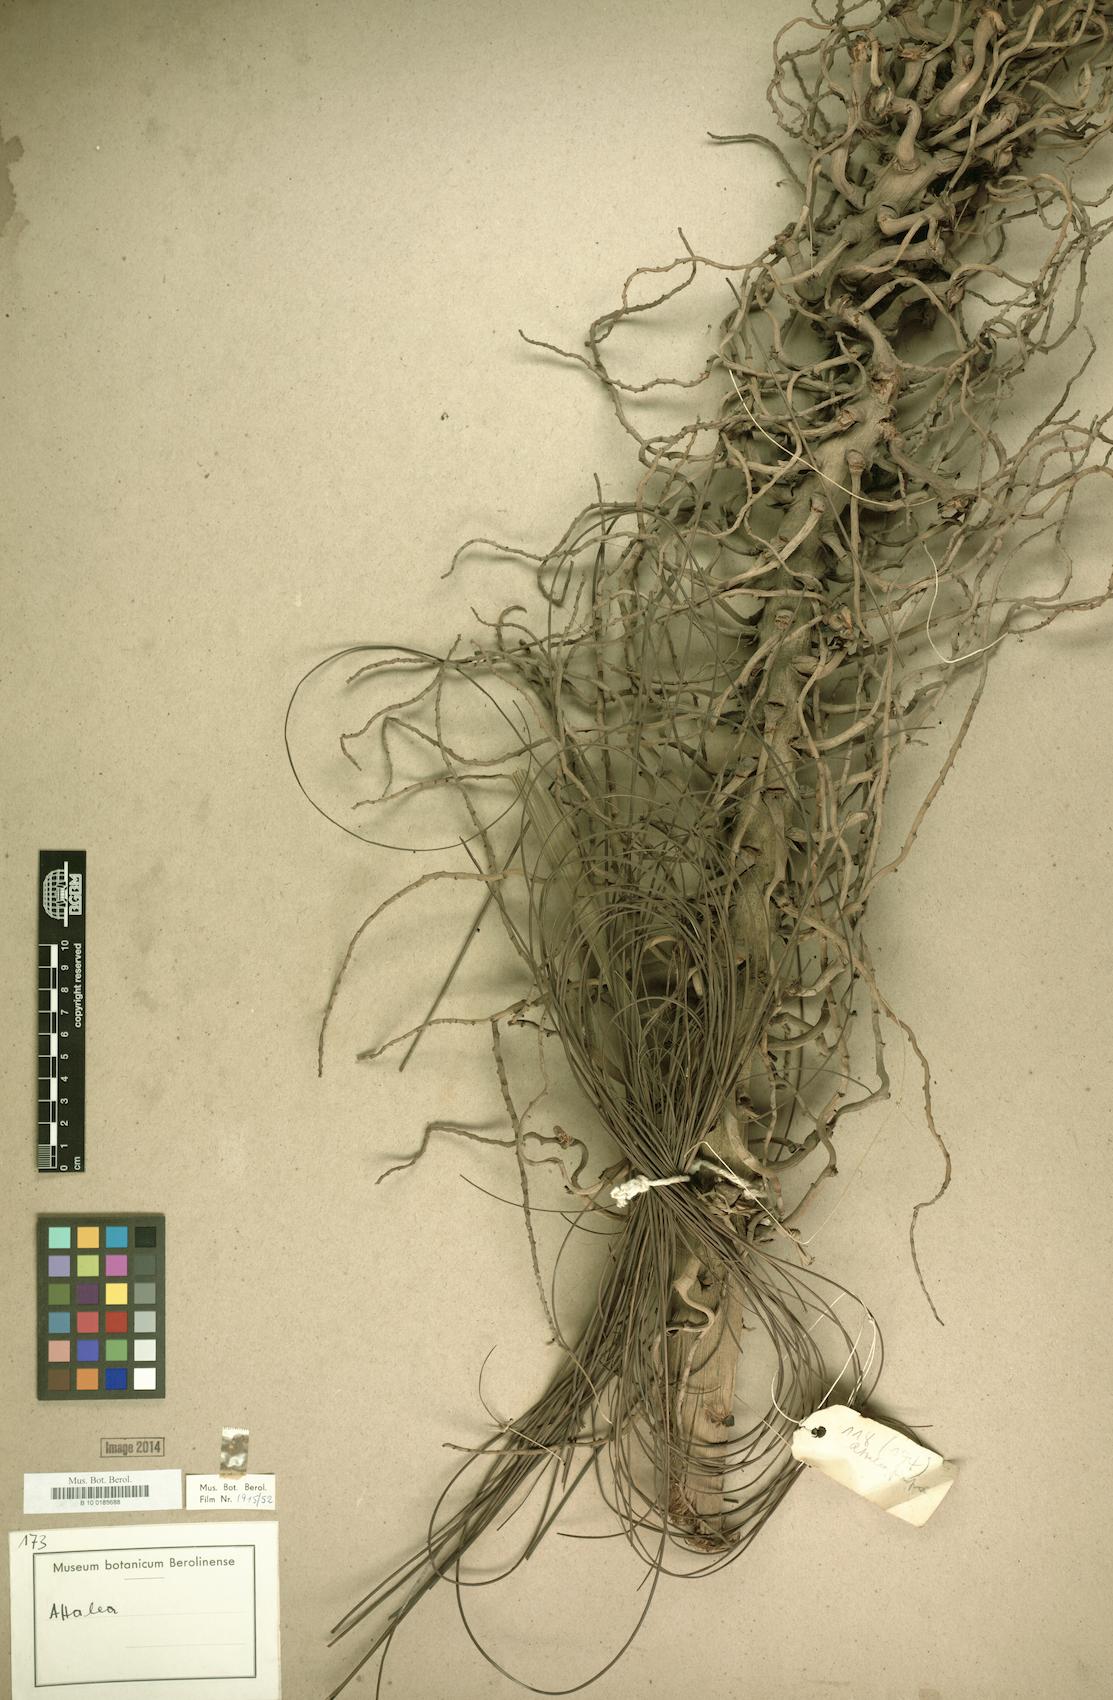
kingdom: Plantae
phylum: Tracheophyta
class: Liliopsida
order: Arecales
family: Arecaceae
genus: Attalea
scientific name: Attalea
